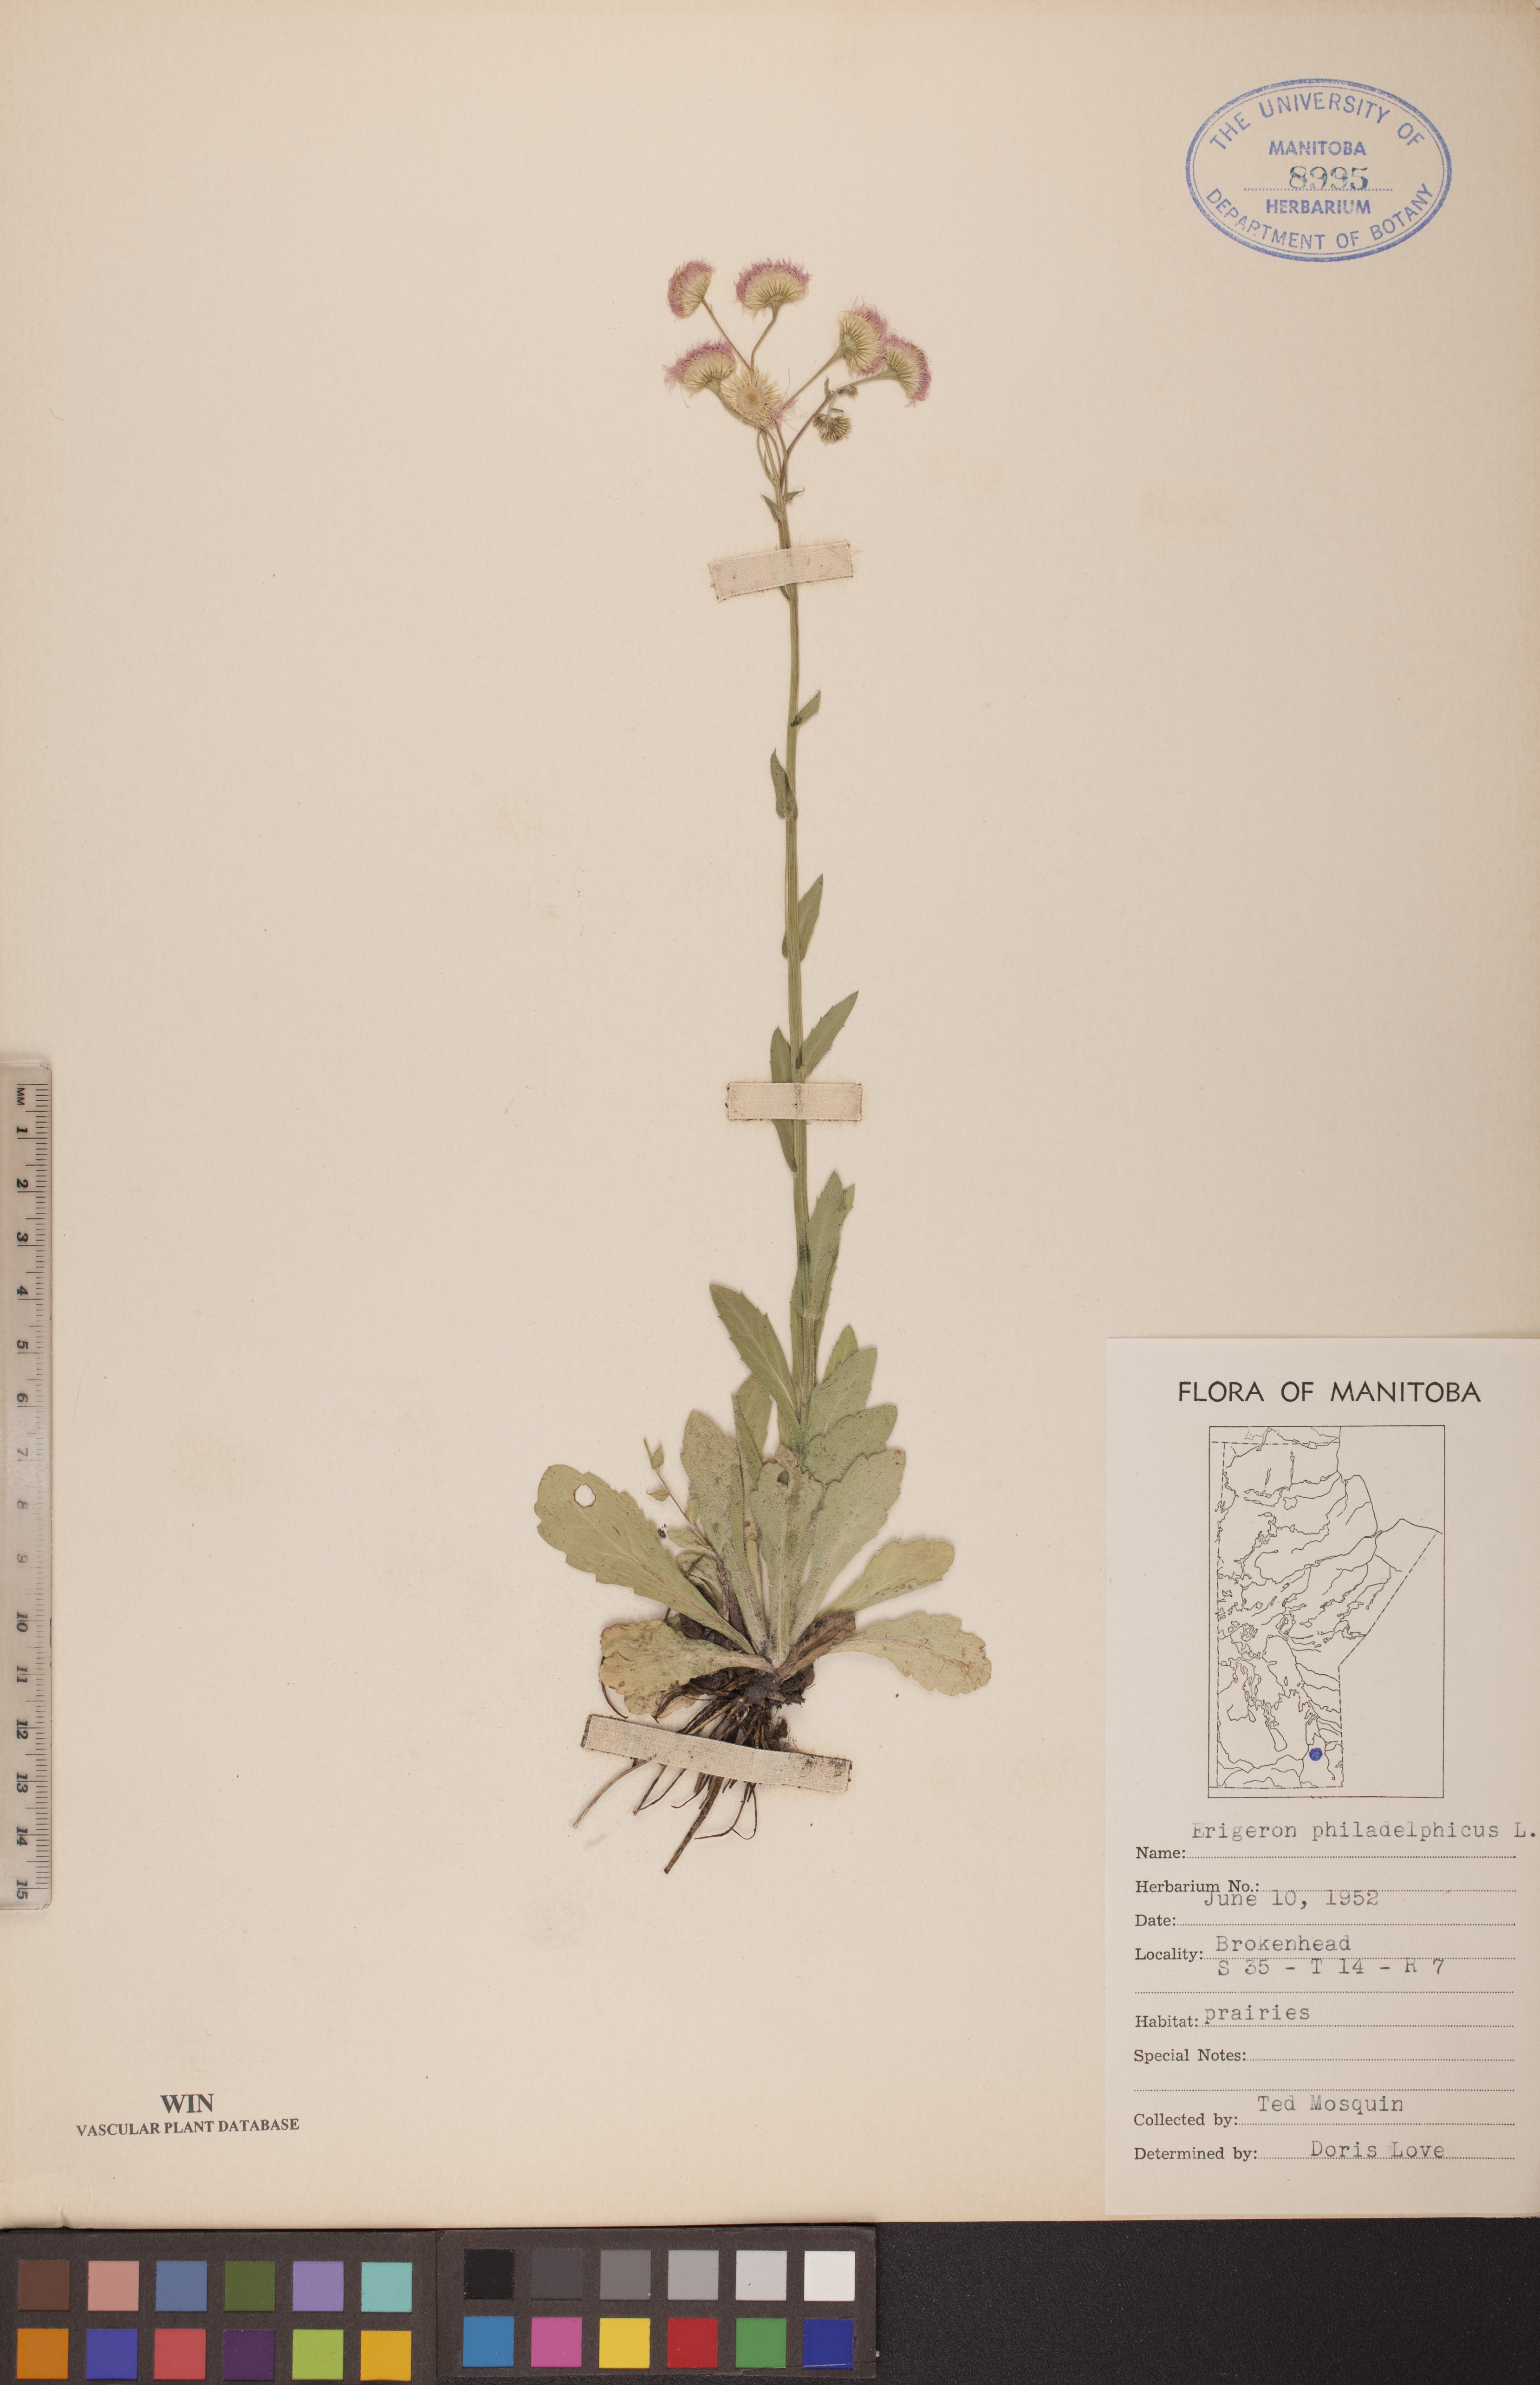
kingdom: Plantae
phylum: Tracheophyta
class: Magnoliopsida
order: Asterales
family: Asteraceae
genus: Erigeron
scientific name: Erigeron philadelphicus
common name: Robin's-plantain
